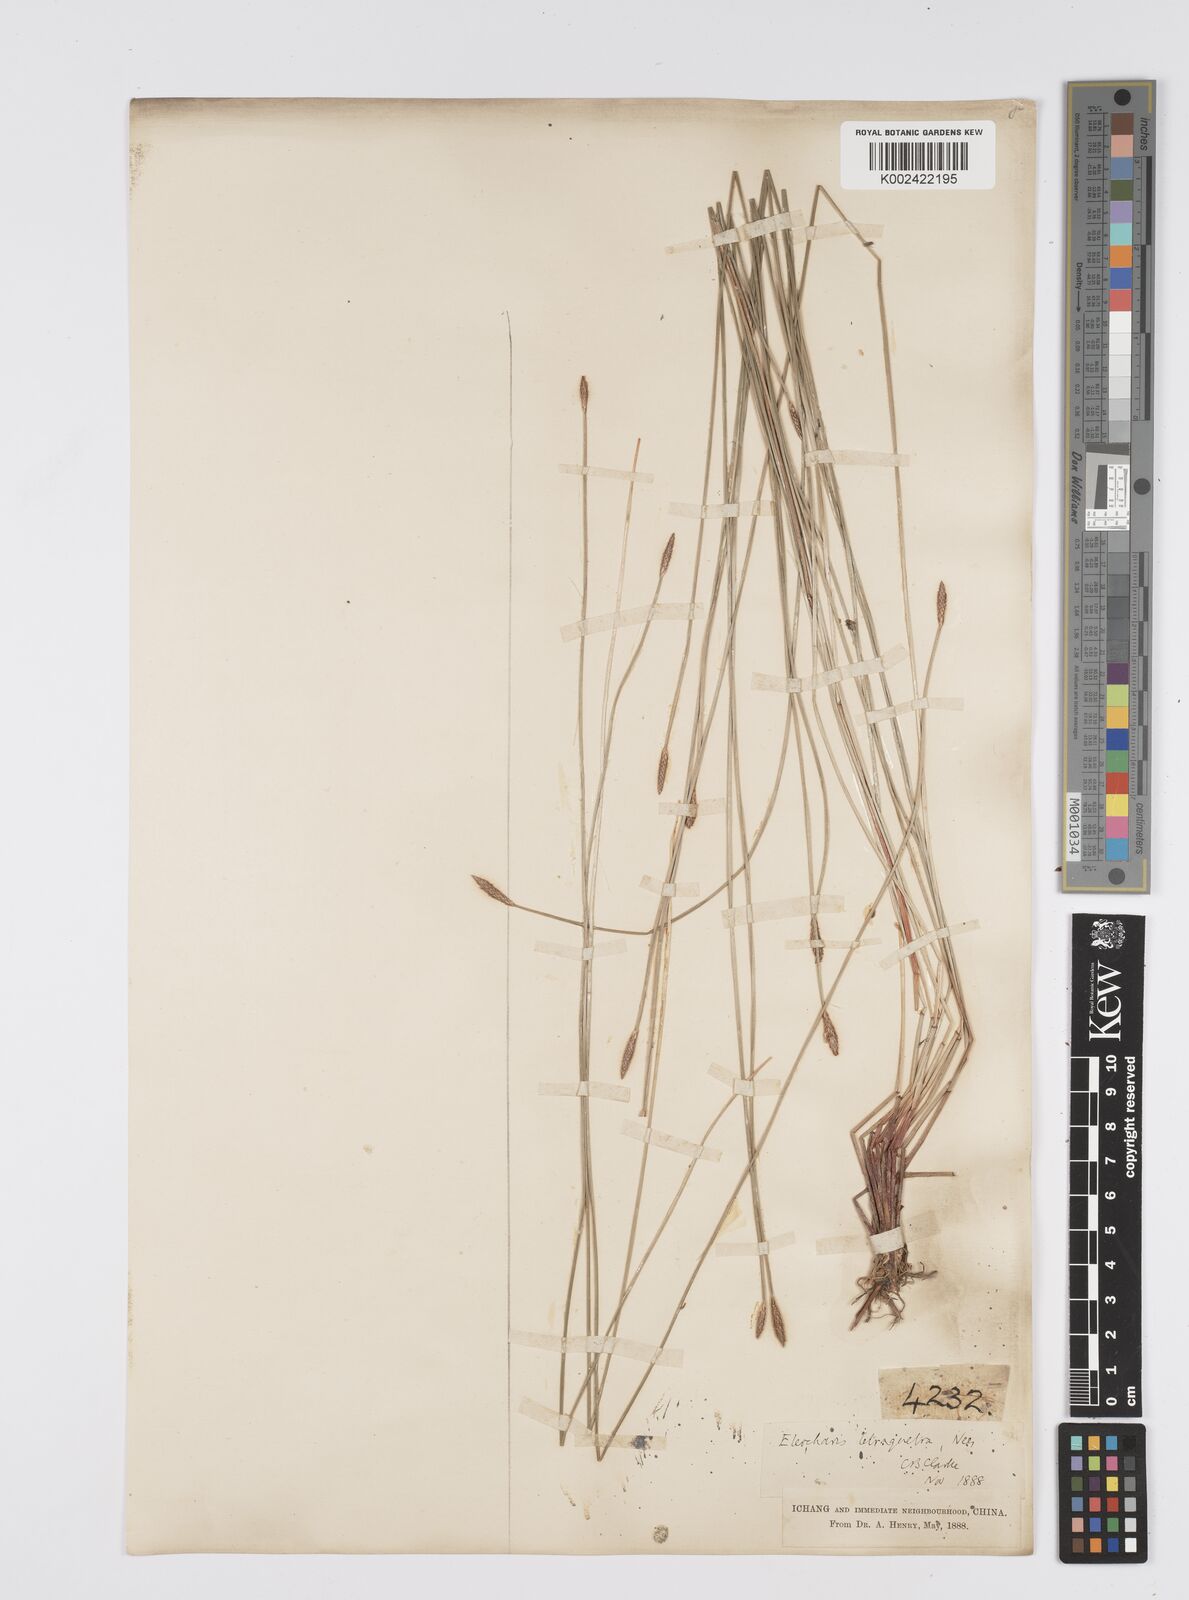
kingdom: Plantae
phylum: Tracheophyta
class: Liliopsida
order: Poales
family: Cyperaceae
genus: Eleocharis
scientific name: Eleocharis tetraquetra
